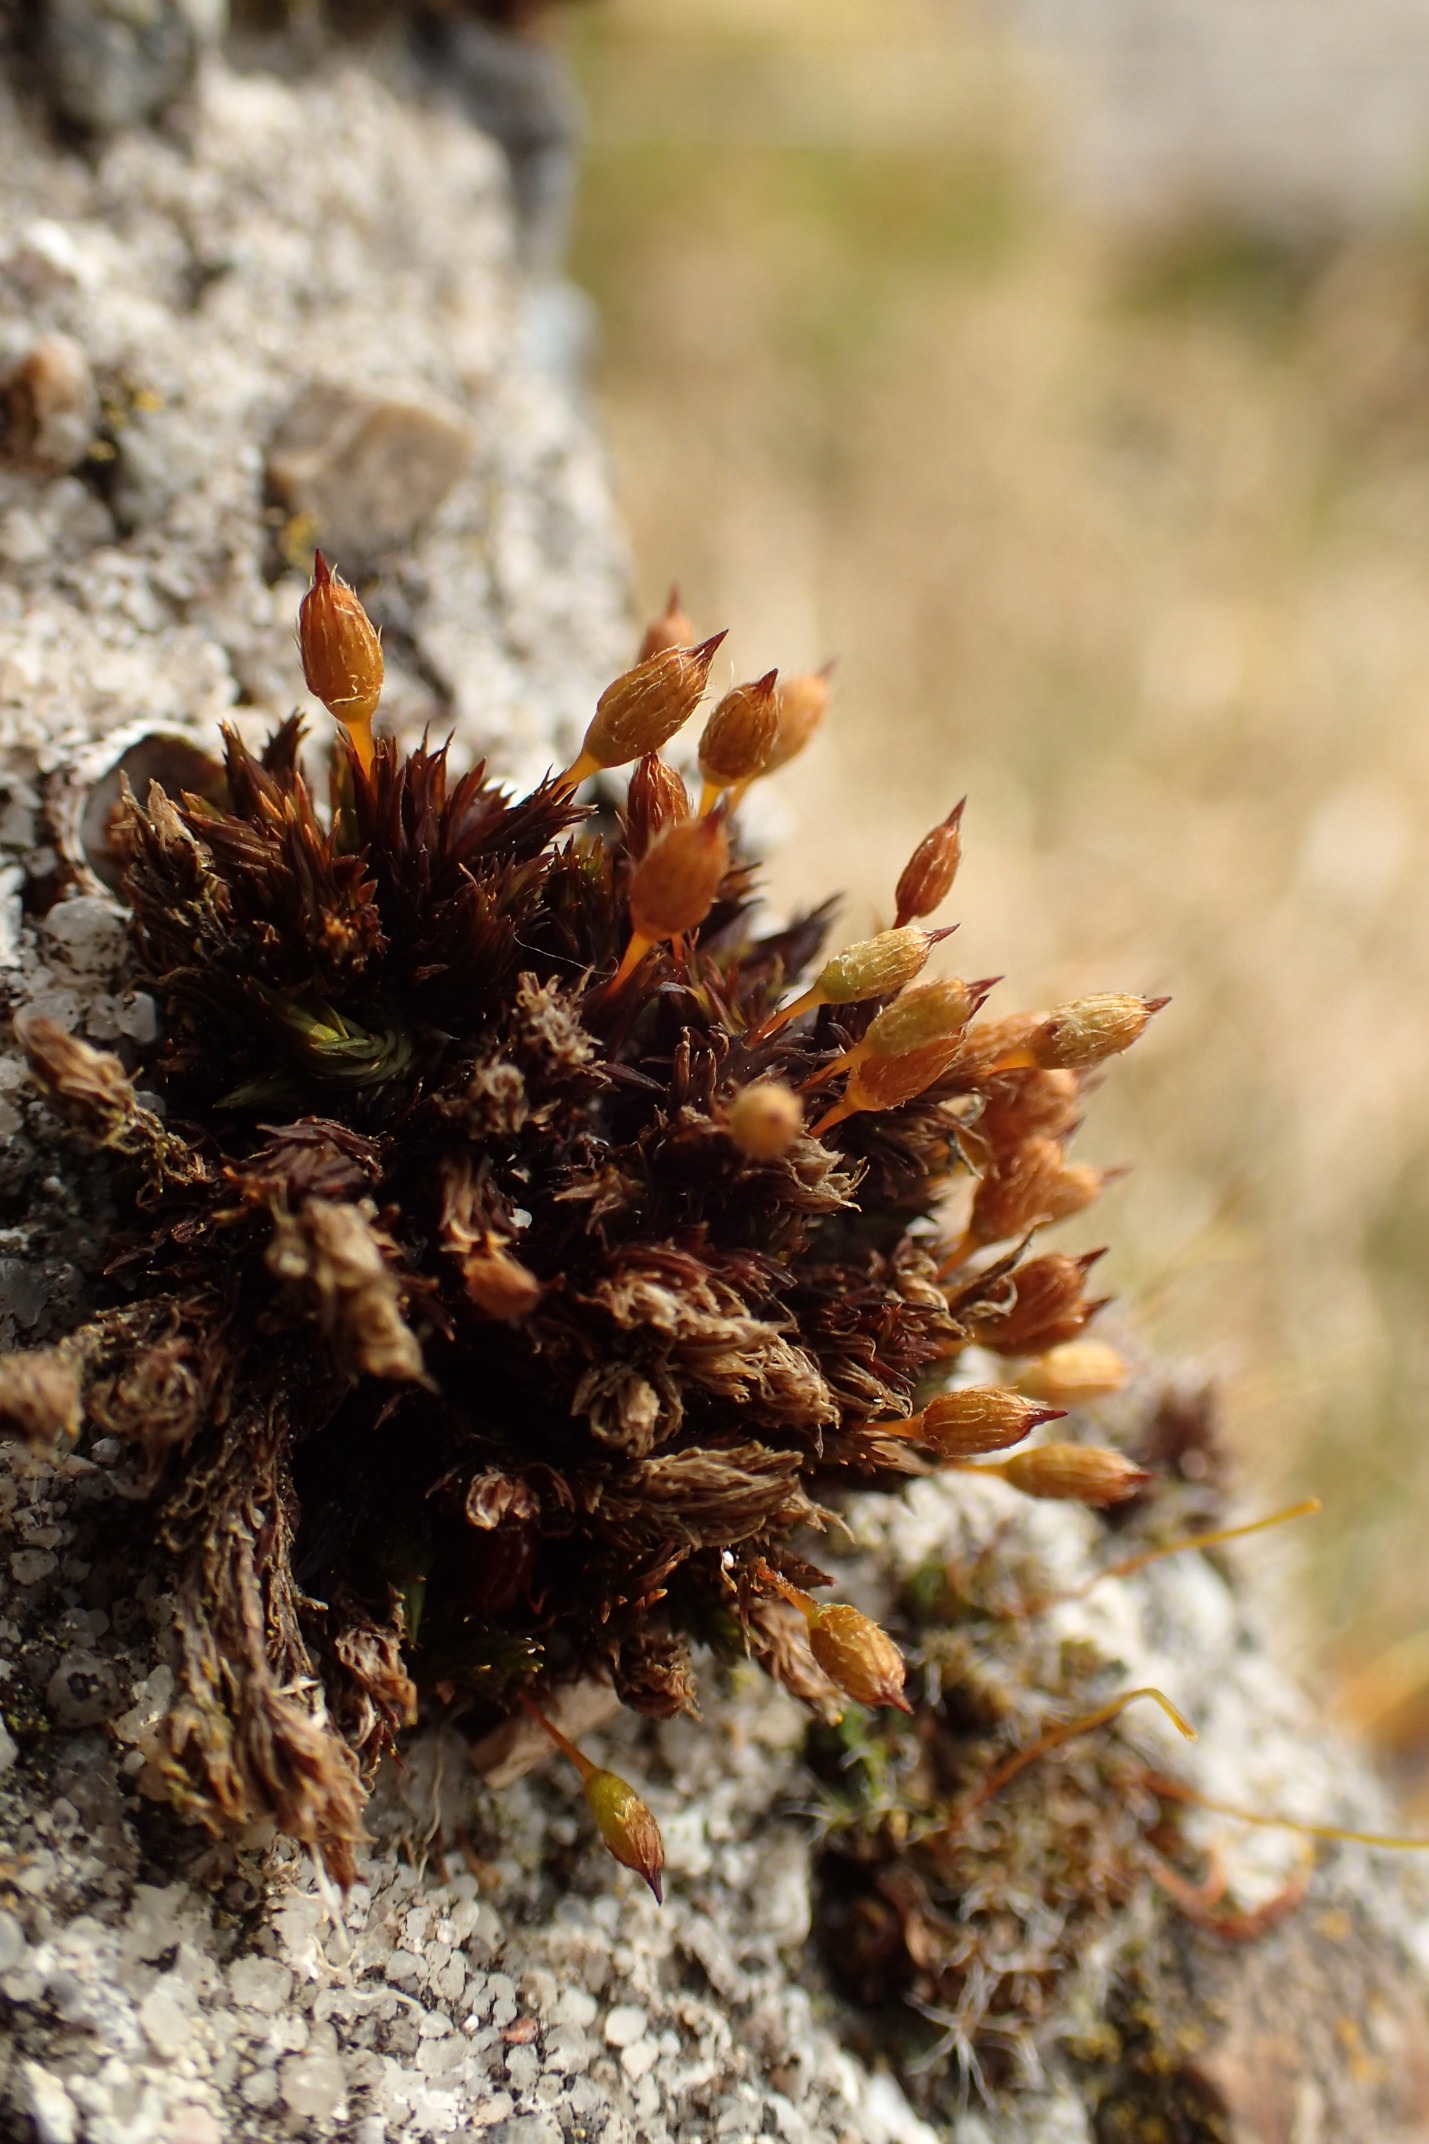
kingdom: Plantae
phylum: Bryophyta
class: Bryopsida
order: Orthotrichales
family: Orthotrichaceae
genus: Orthotrichum
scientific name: Orthotrichum anomalum
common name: Mørk furehætte
